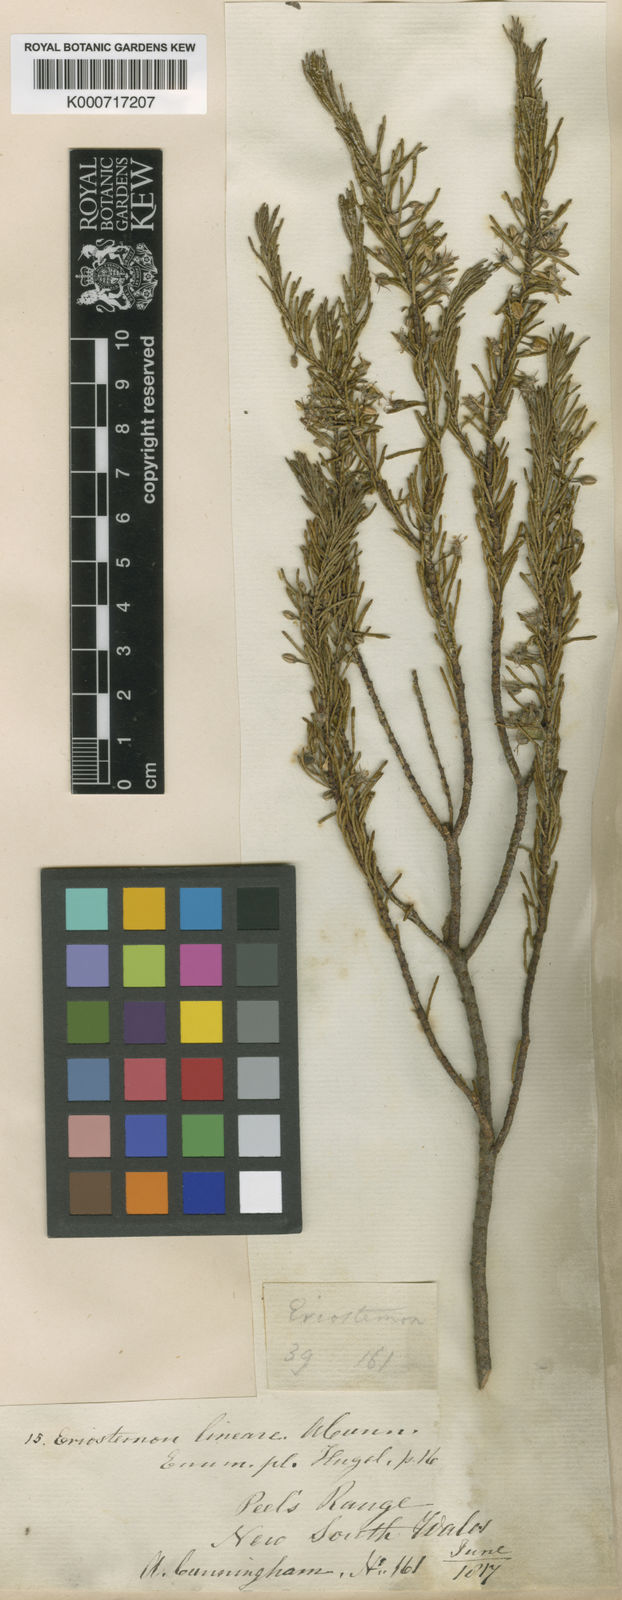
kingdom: Plantae
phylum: Tracheophyta
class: Magnoliopsida
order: Sapindales
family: Rutaceae
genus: Philotheca
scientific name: Philotheca linearis
